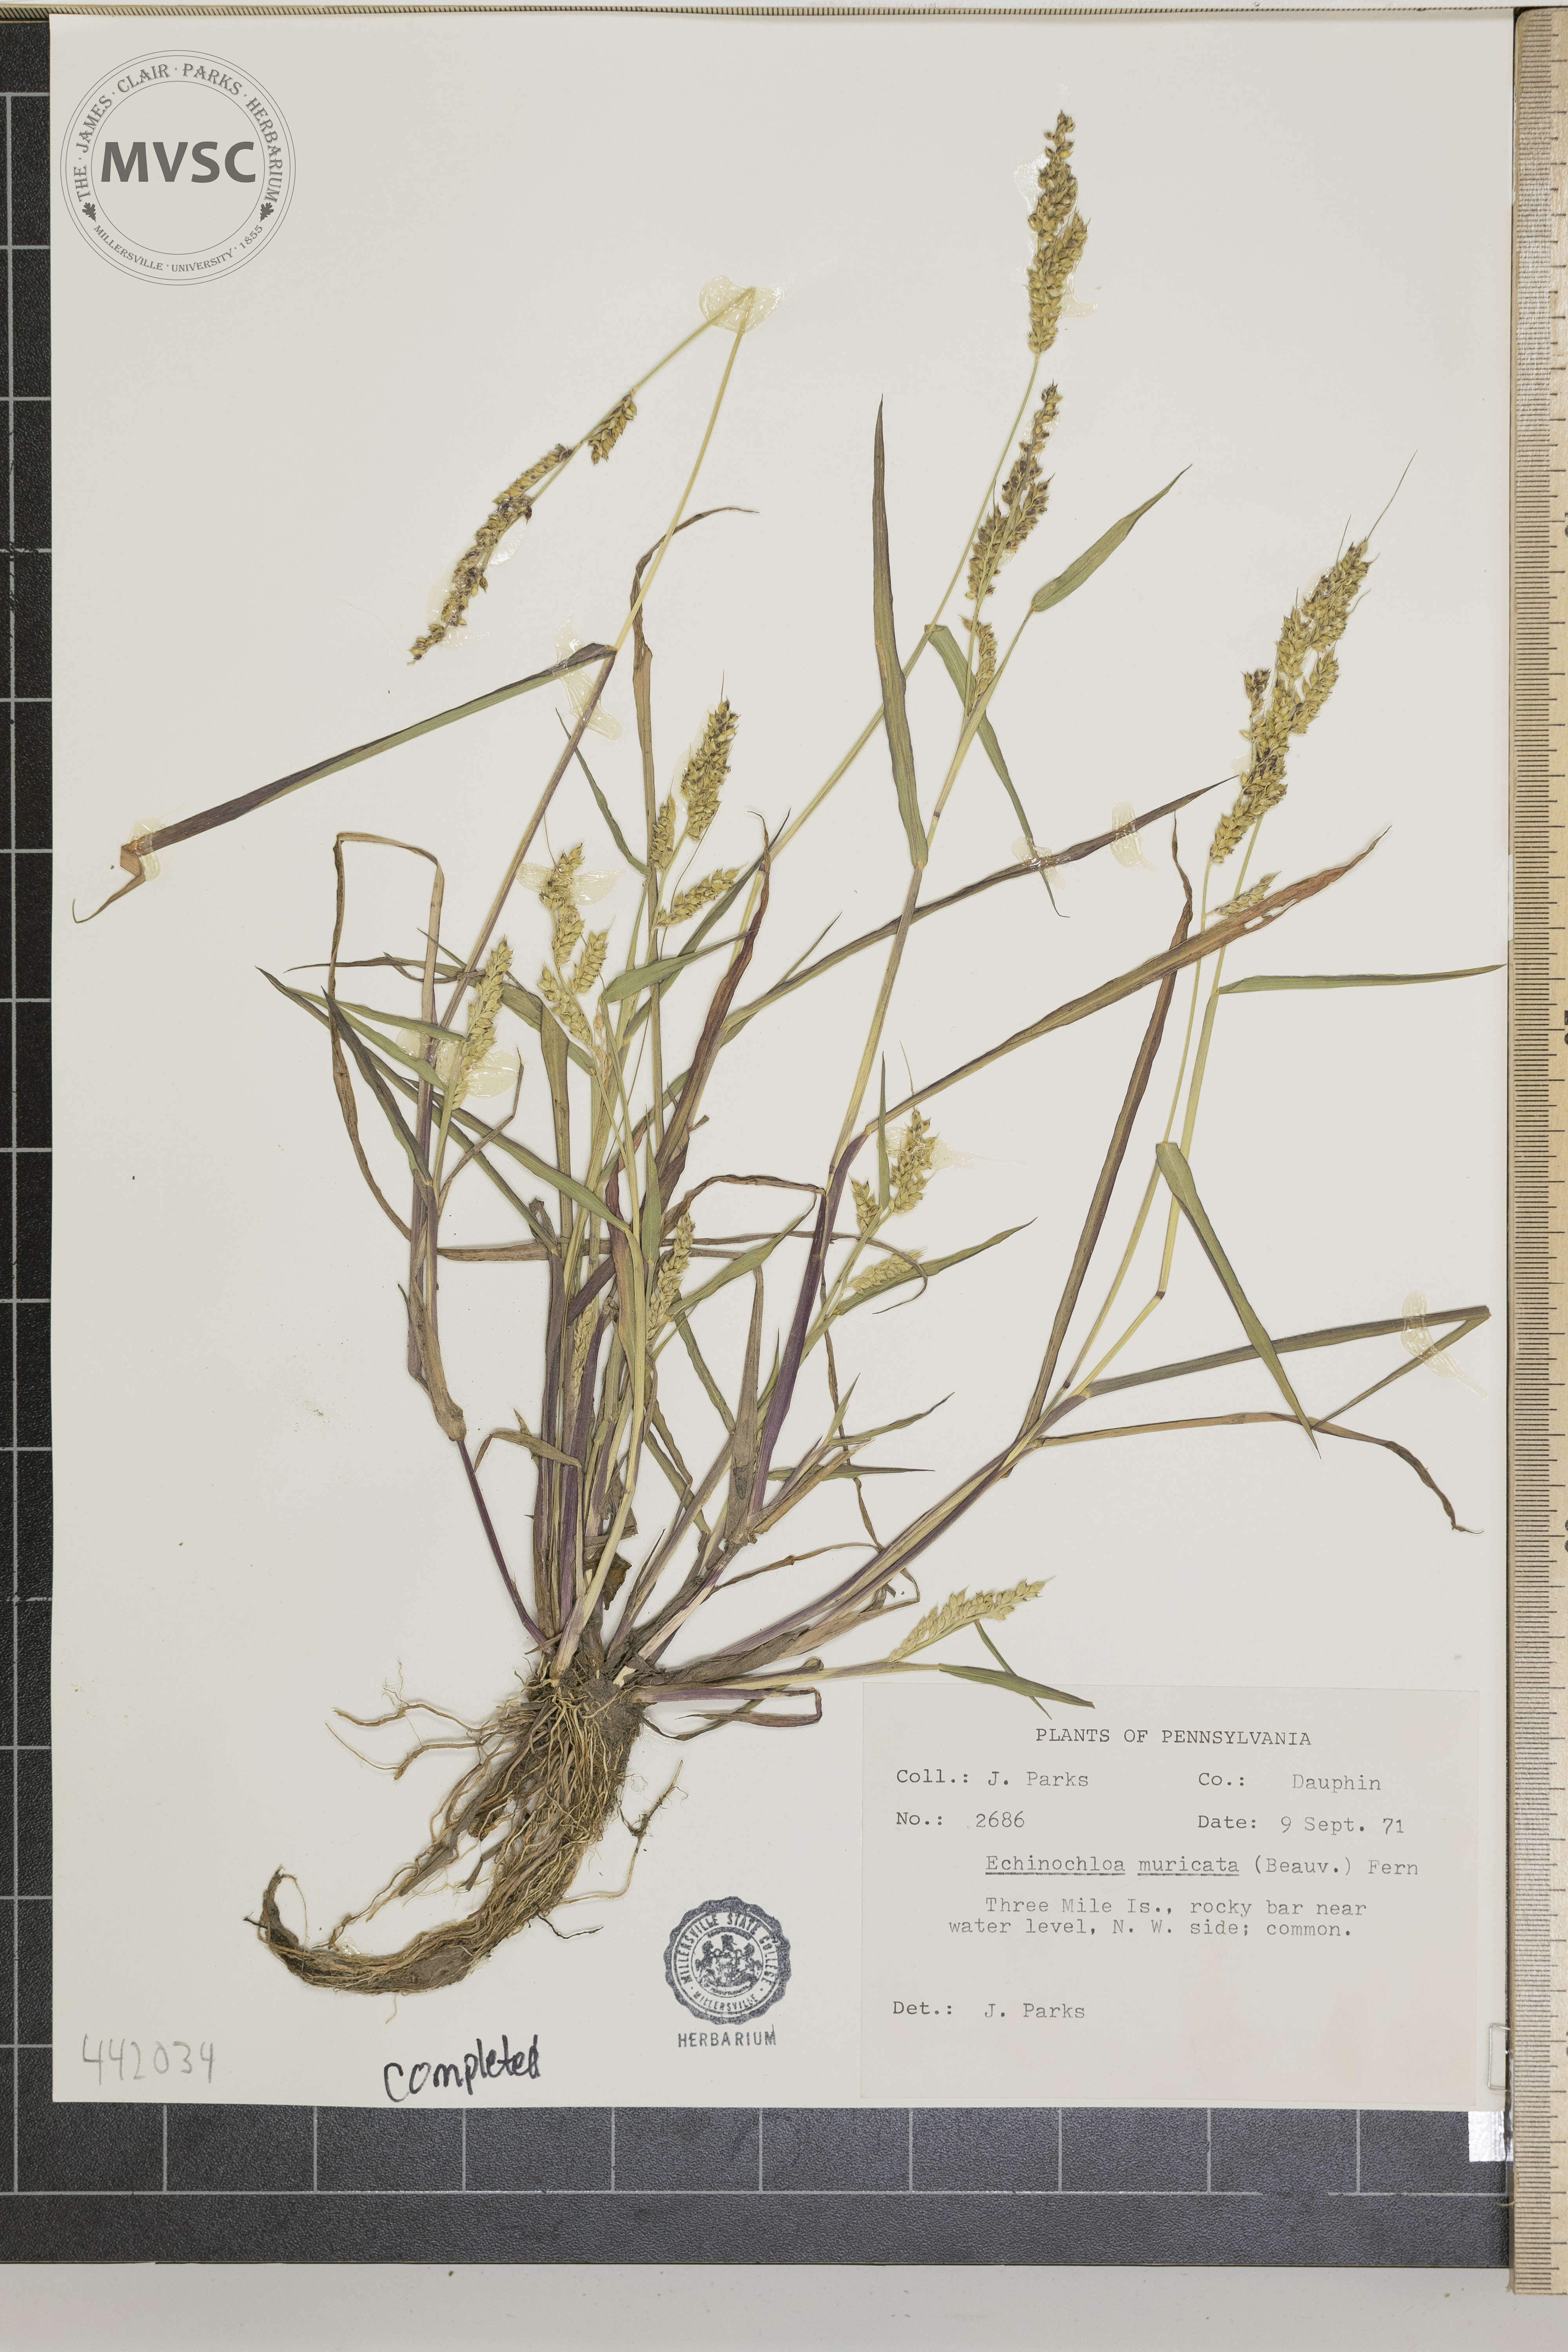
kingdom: Plantae
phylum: Tracheophyta
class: Liliopsida
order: Poales
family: Poaceae
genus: Echinochloa
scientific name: Echinochloa muricata
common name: American barnyard grass
